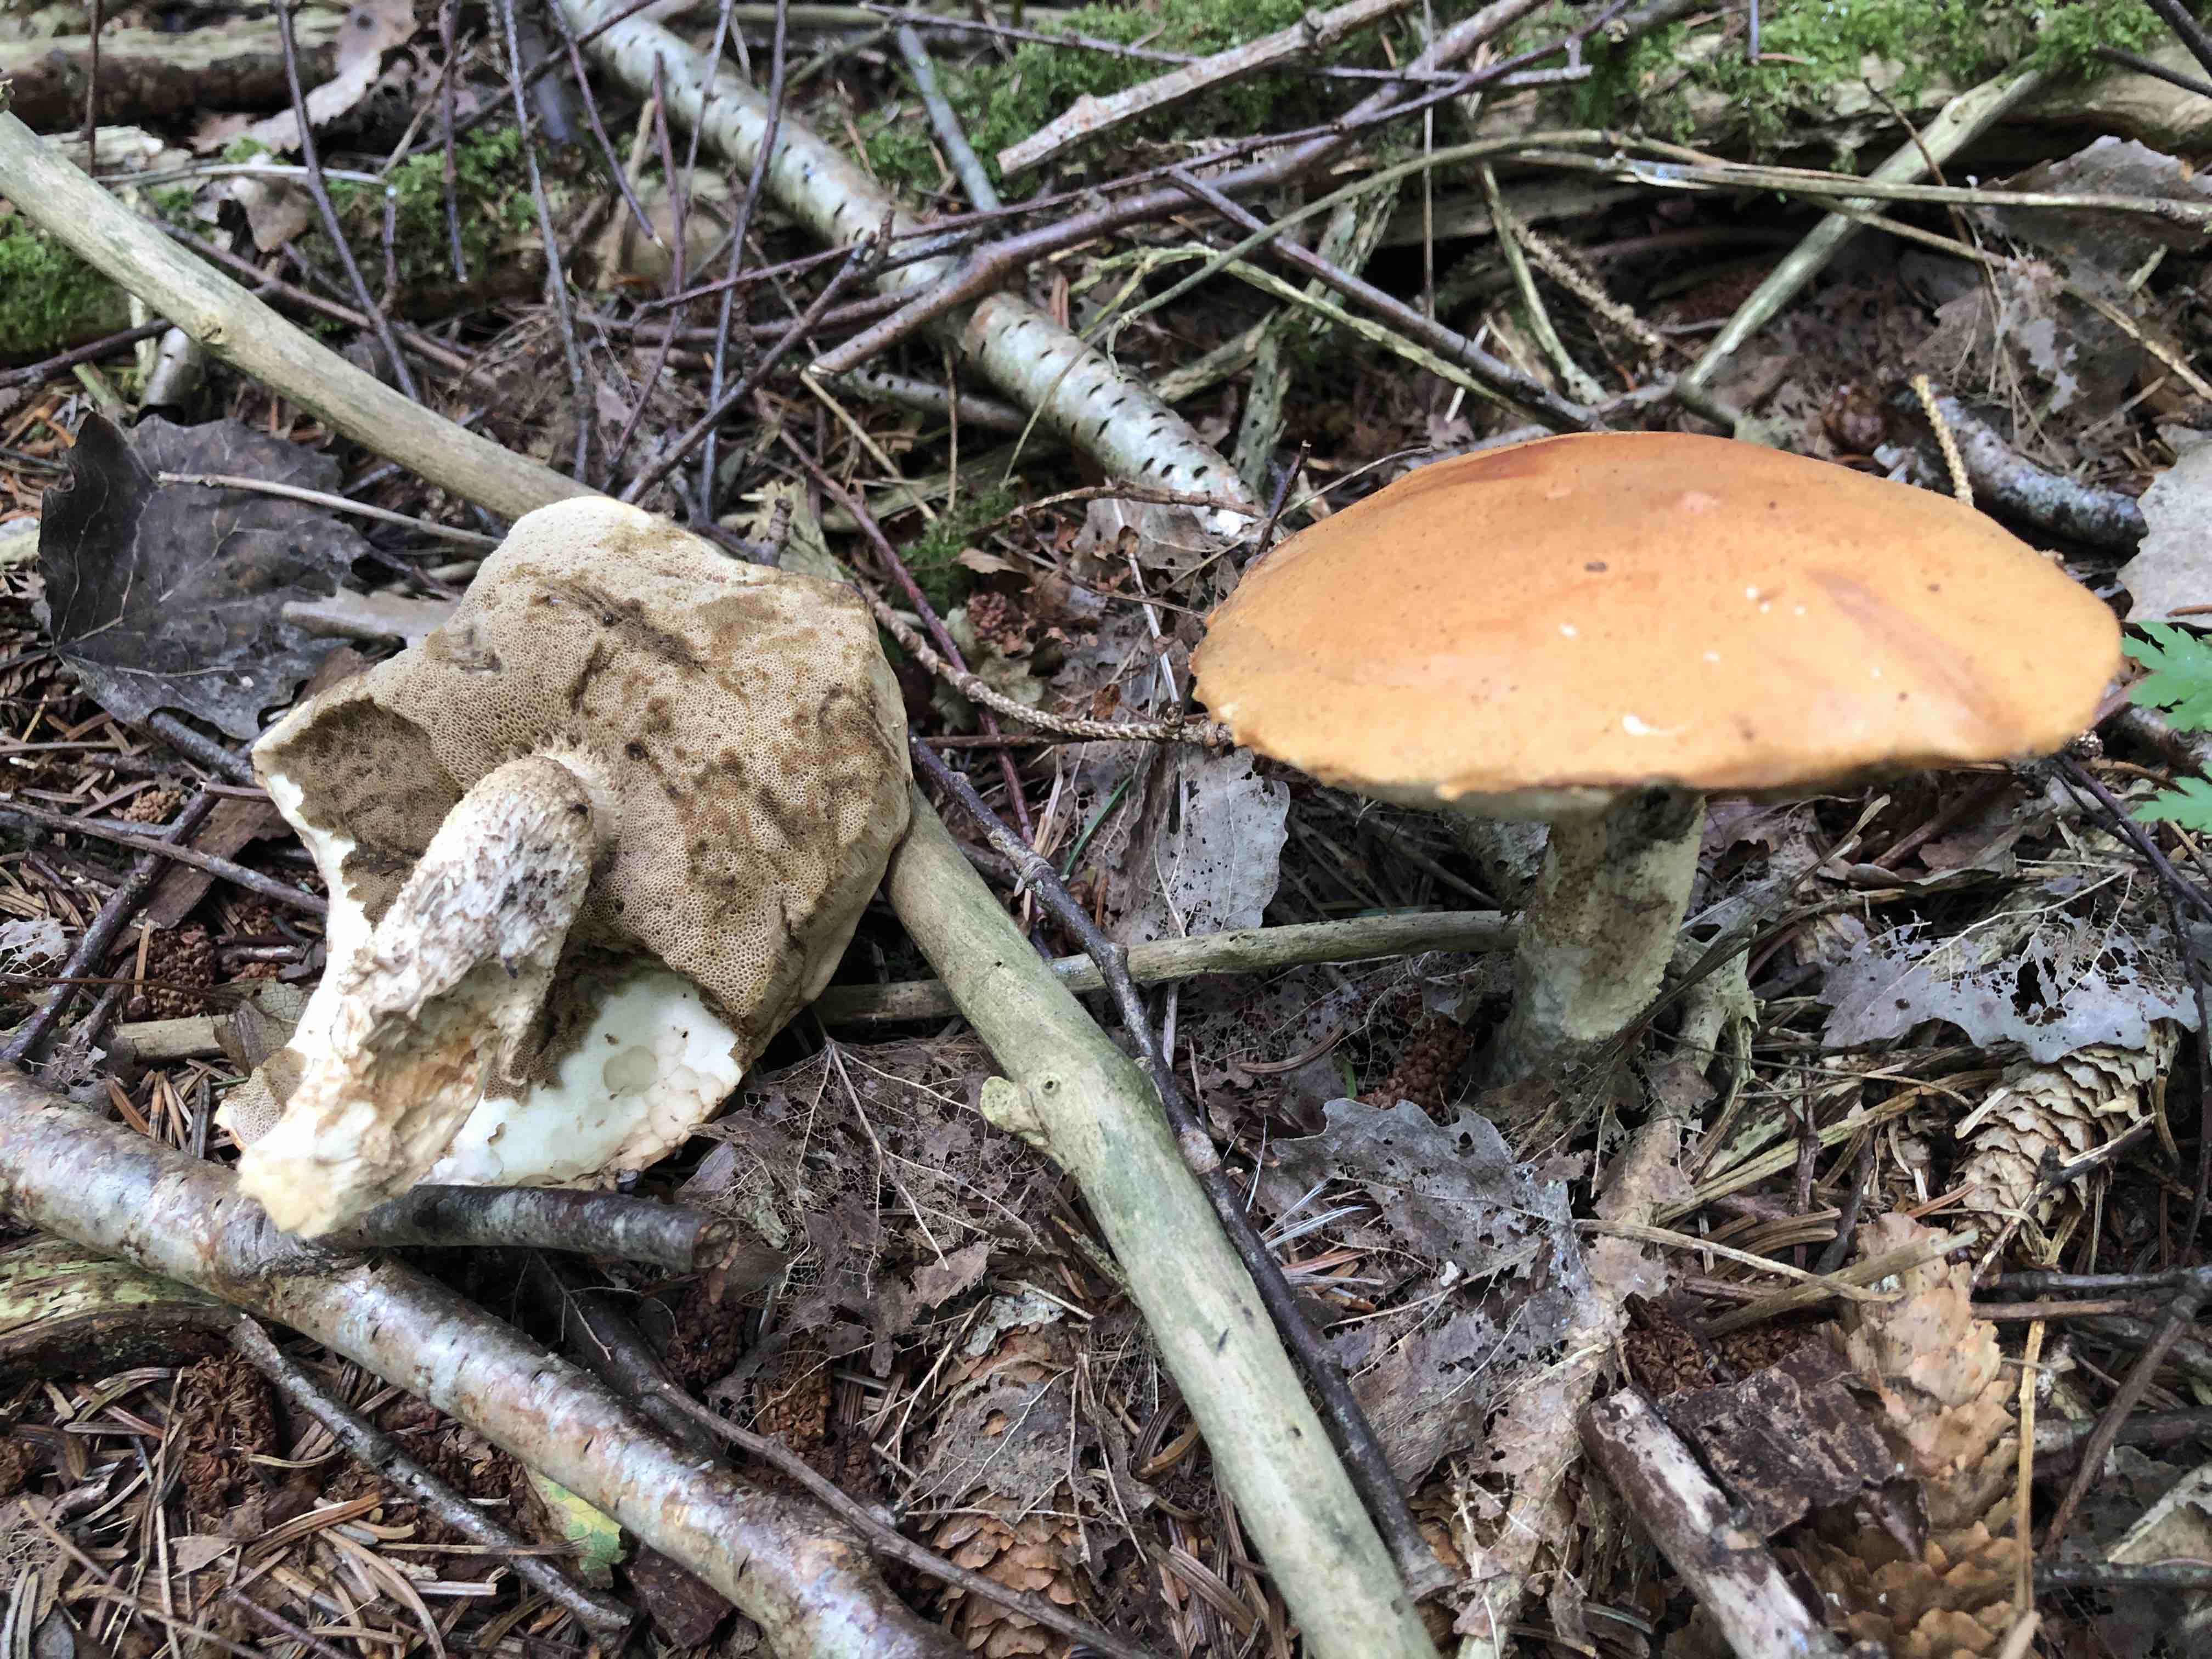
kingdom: Fungi
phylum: Basidiomycota
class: Agaricomycetes
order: Boletales
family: Boletaceae
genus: Leccinum
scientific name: Leccinum versipelle
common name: orange skælrørhat
